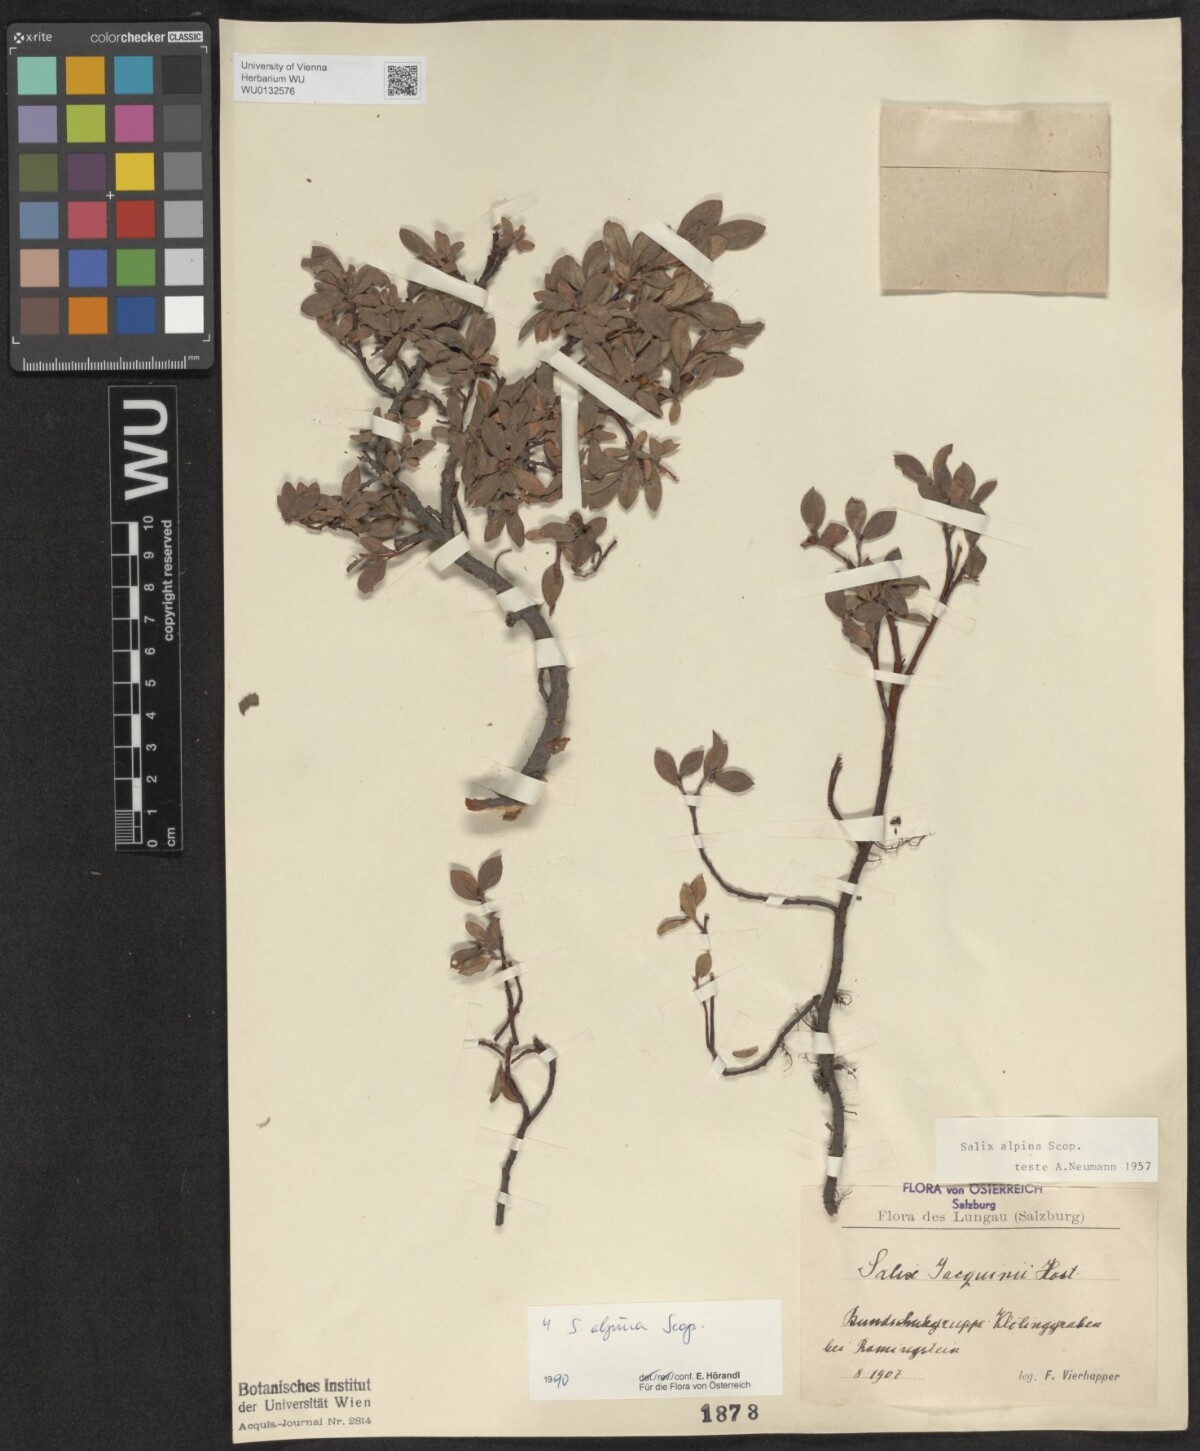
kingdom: Plantae
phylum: Tracheophyta
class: Magnoliopsida
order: Malpighiales
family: Salicaceae
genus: Salix
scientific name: Salix alpina
